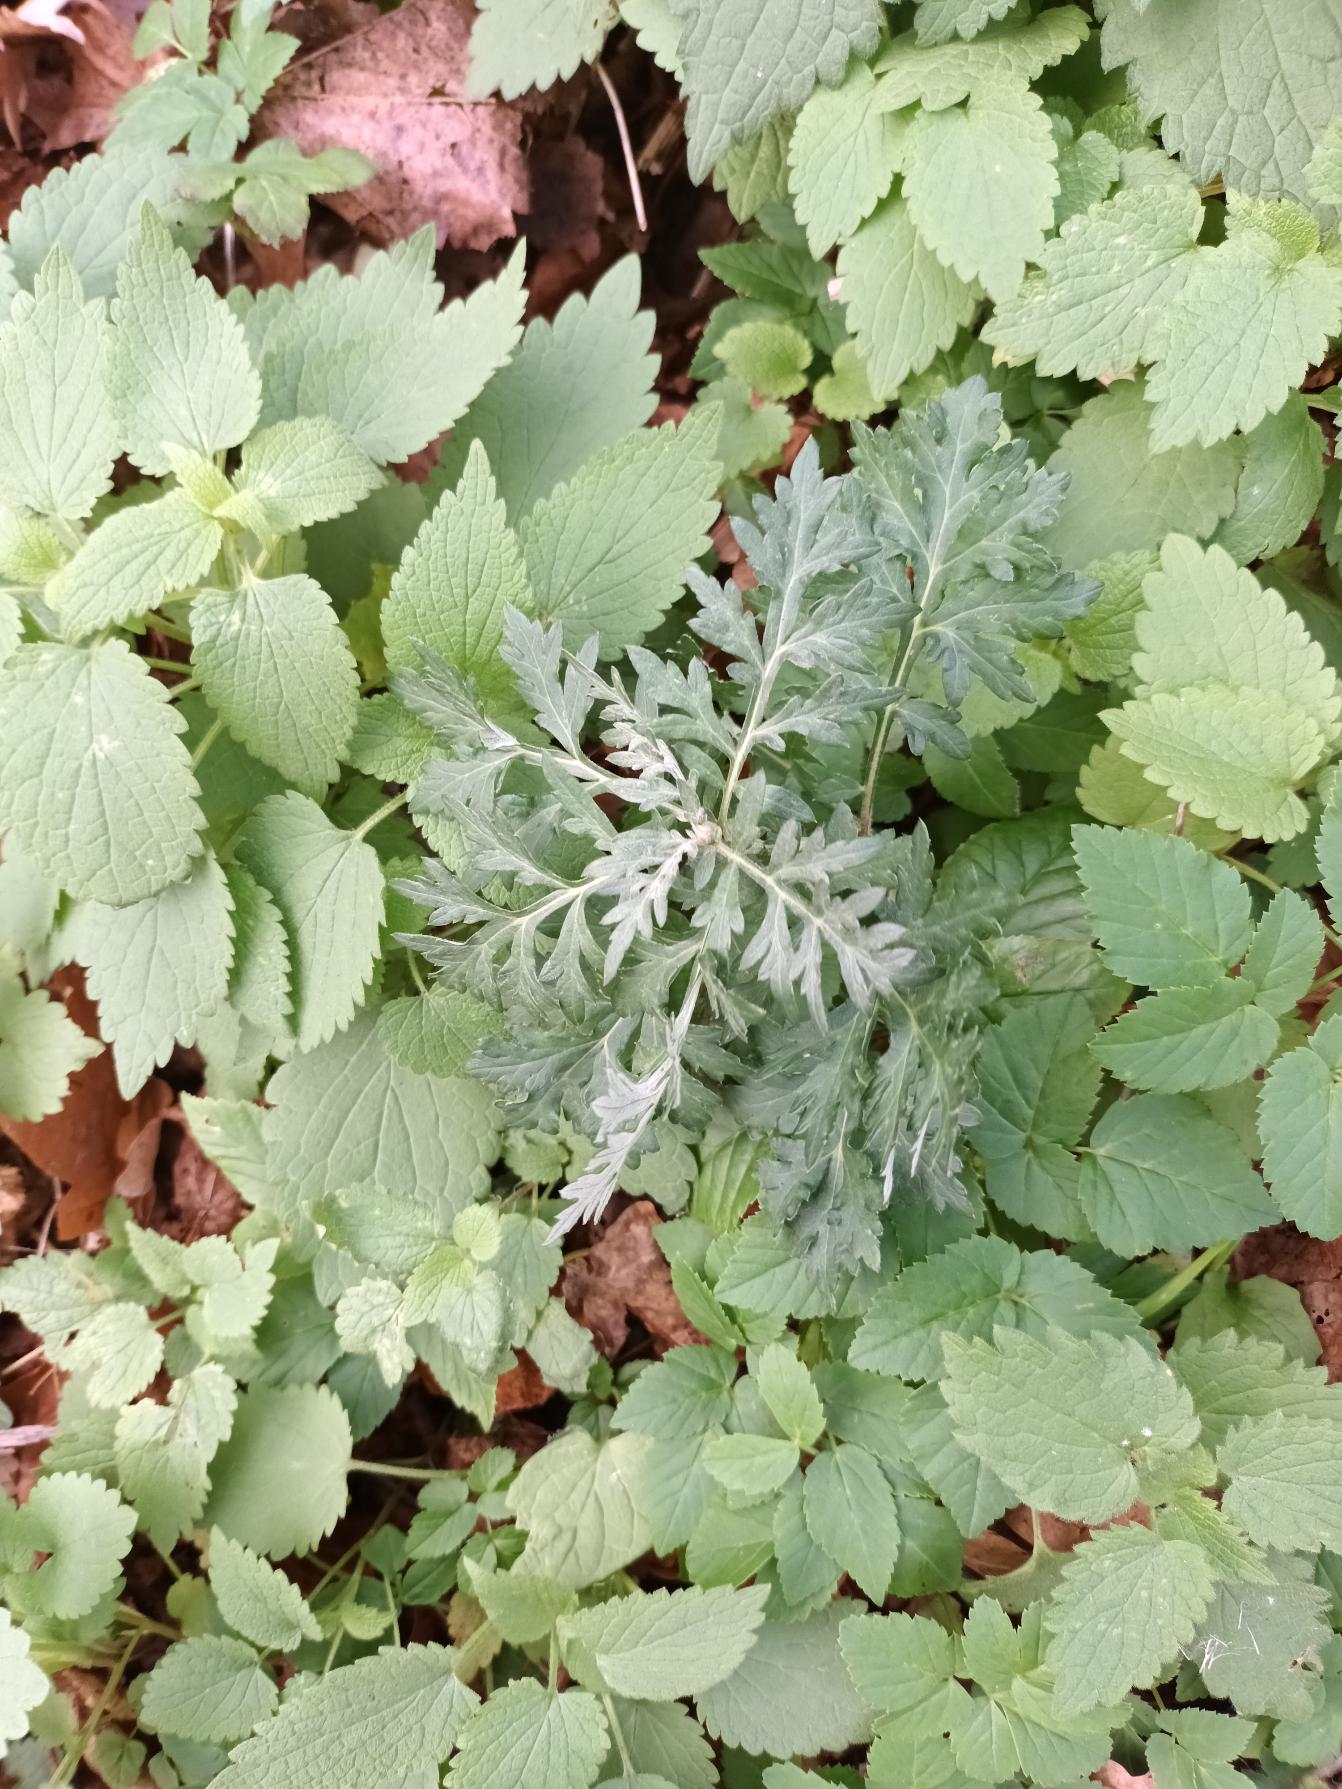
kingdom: Plantae
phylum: Tracheophyta
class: Magnoliopsida
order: Asterales
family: Asteraceae
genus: Artemisia
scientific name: Artemisia vulgaris
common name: Grå-bynke
